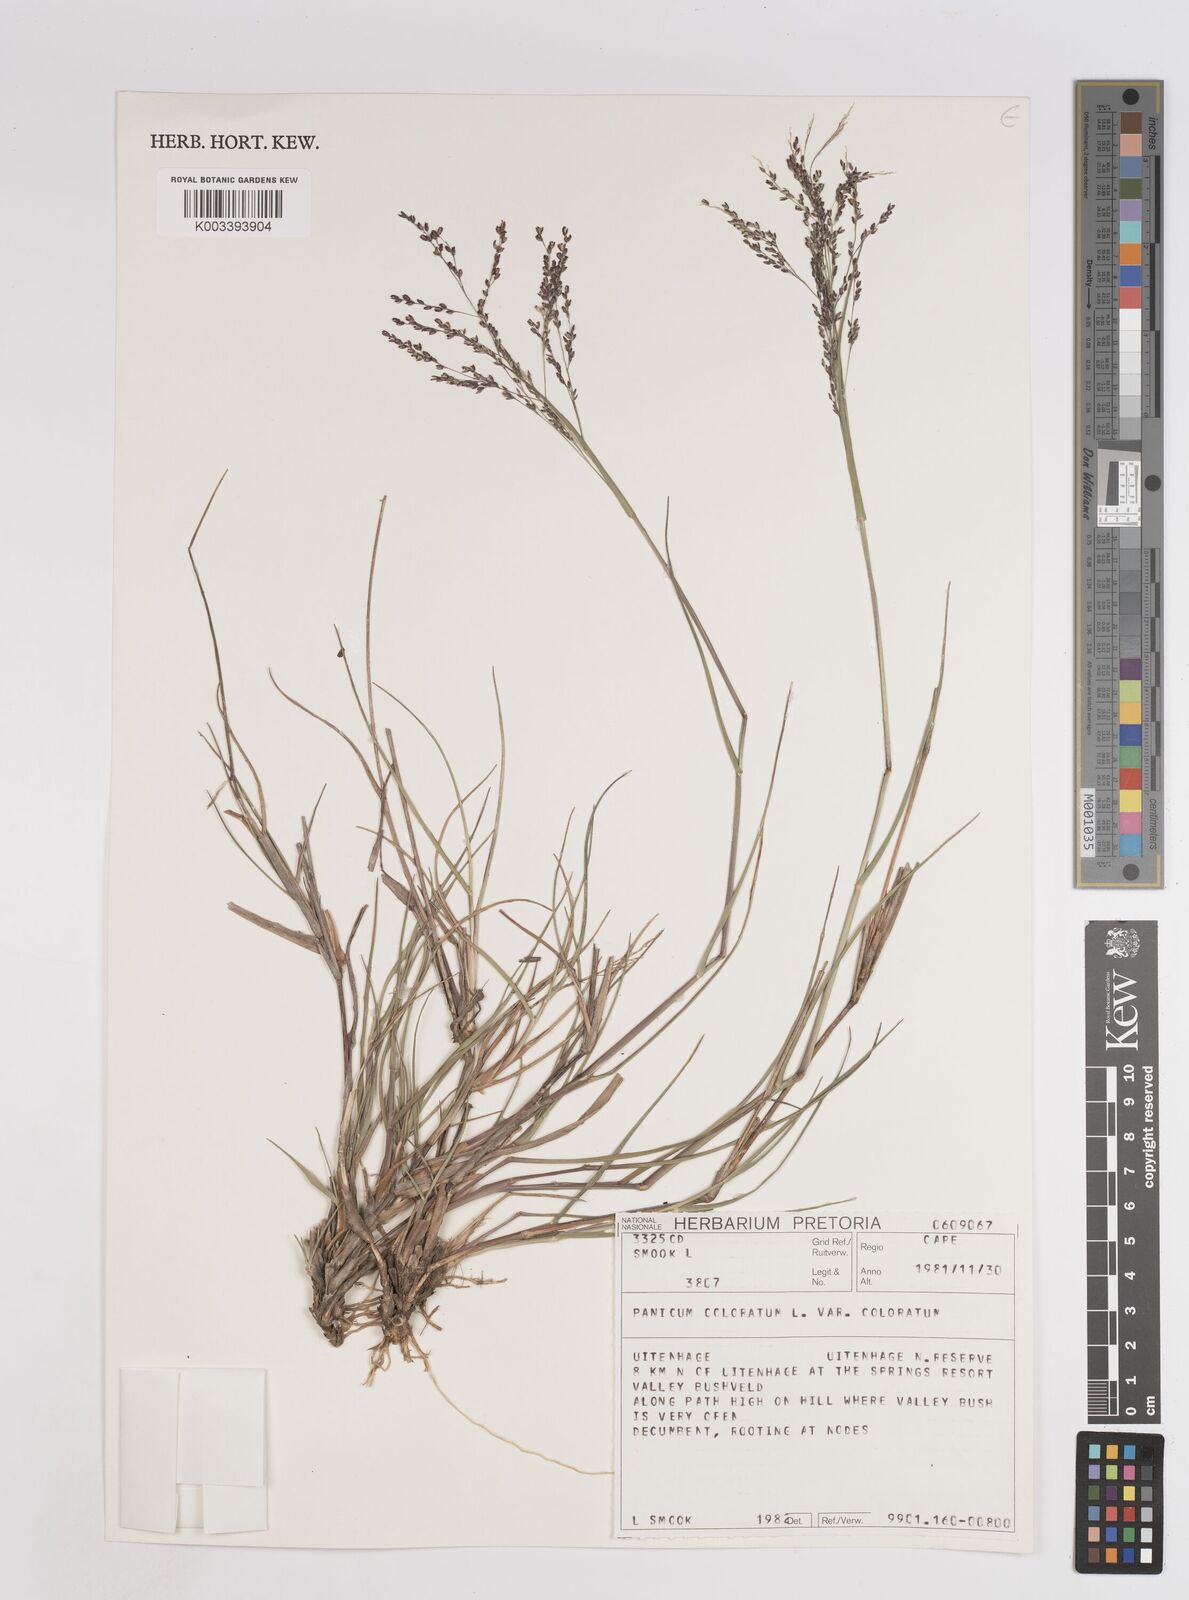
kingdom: Plantae
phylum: Tracheophyta
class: Liliopsida
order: Poales
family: Poaceae
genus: Panicum
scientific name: Panicum stapfianum
